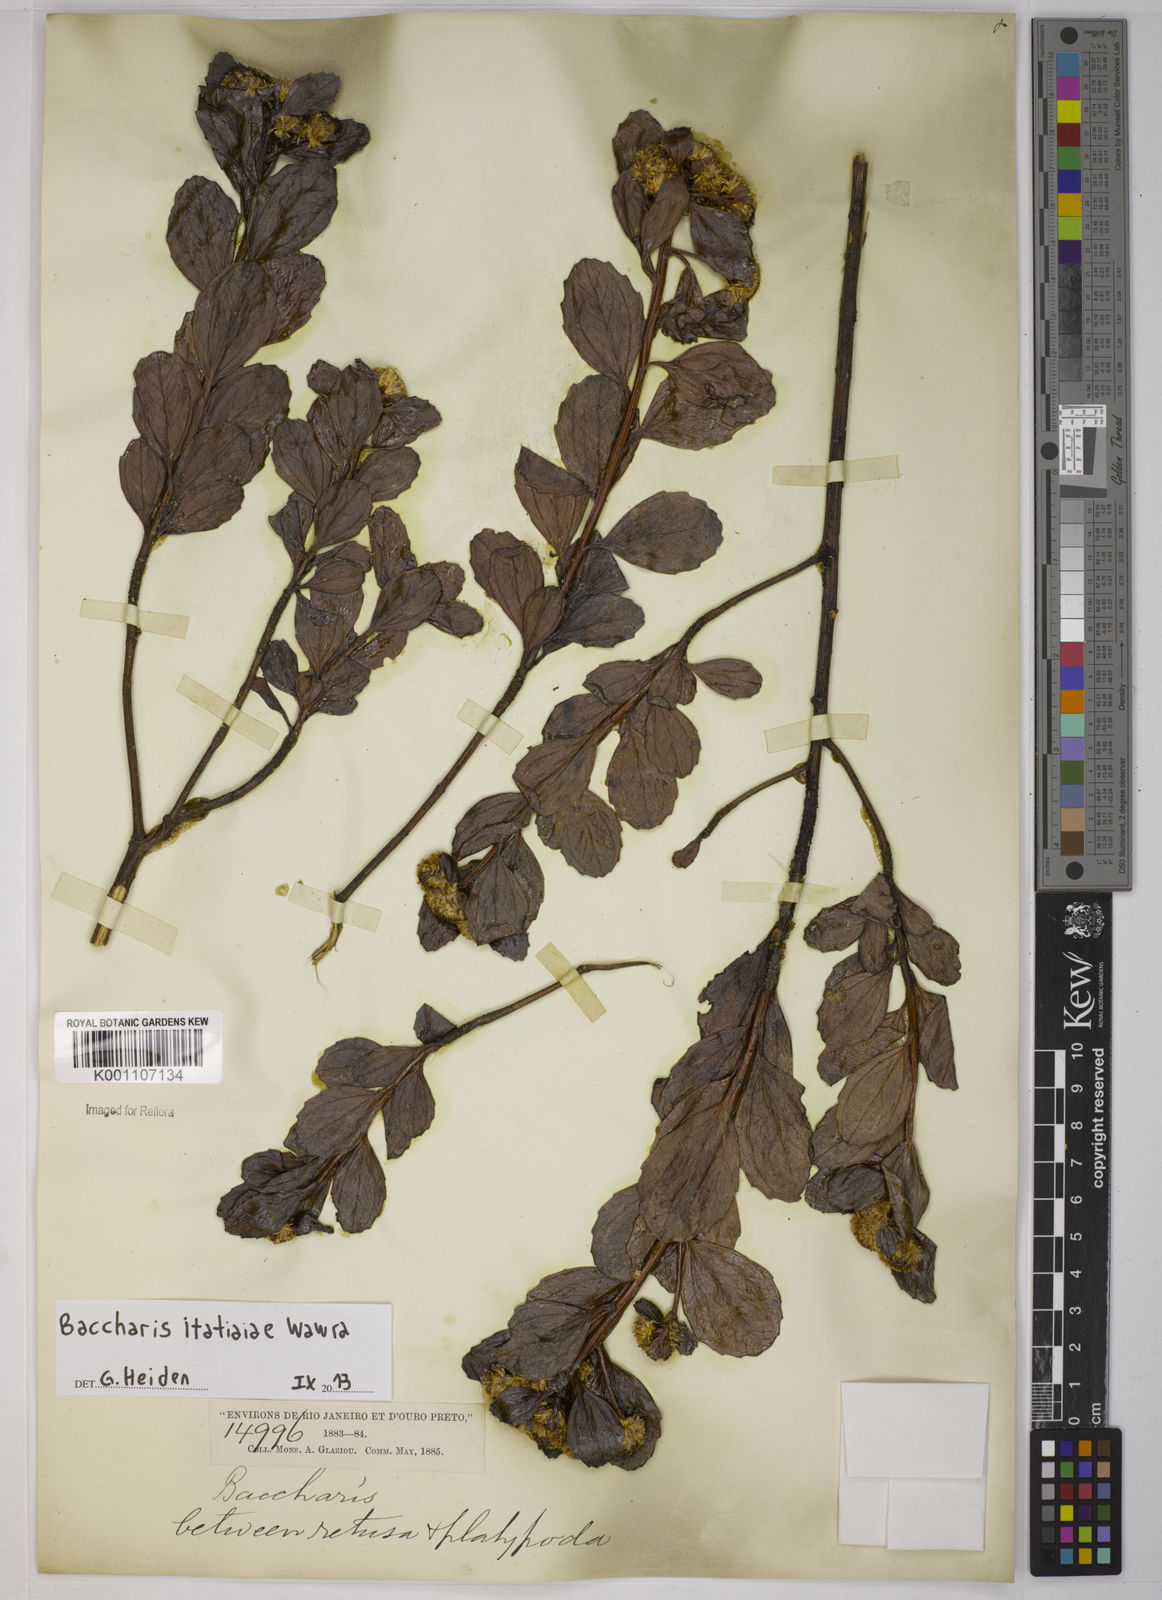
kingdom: Plantae
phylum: Tracheophyta
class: Magnoliopsida
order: Asterales
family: Asteraceae
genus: Baccharis
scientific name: Baccharis itatiaiae
